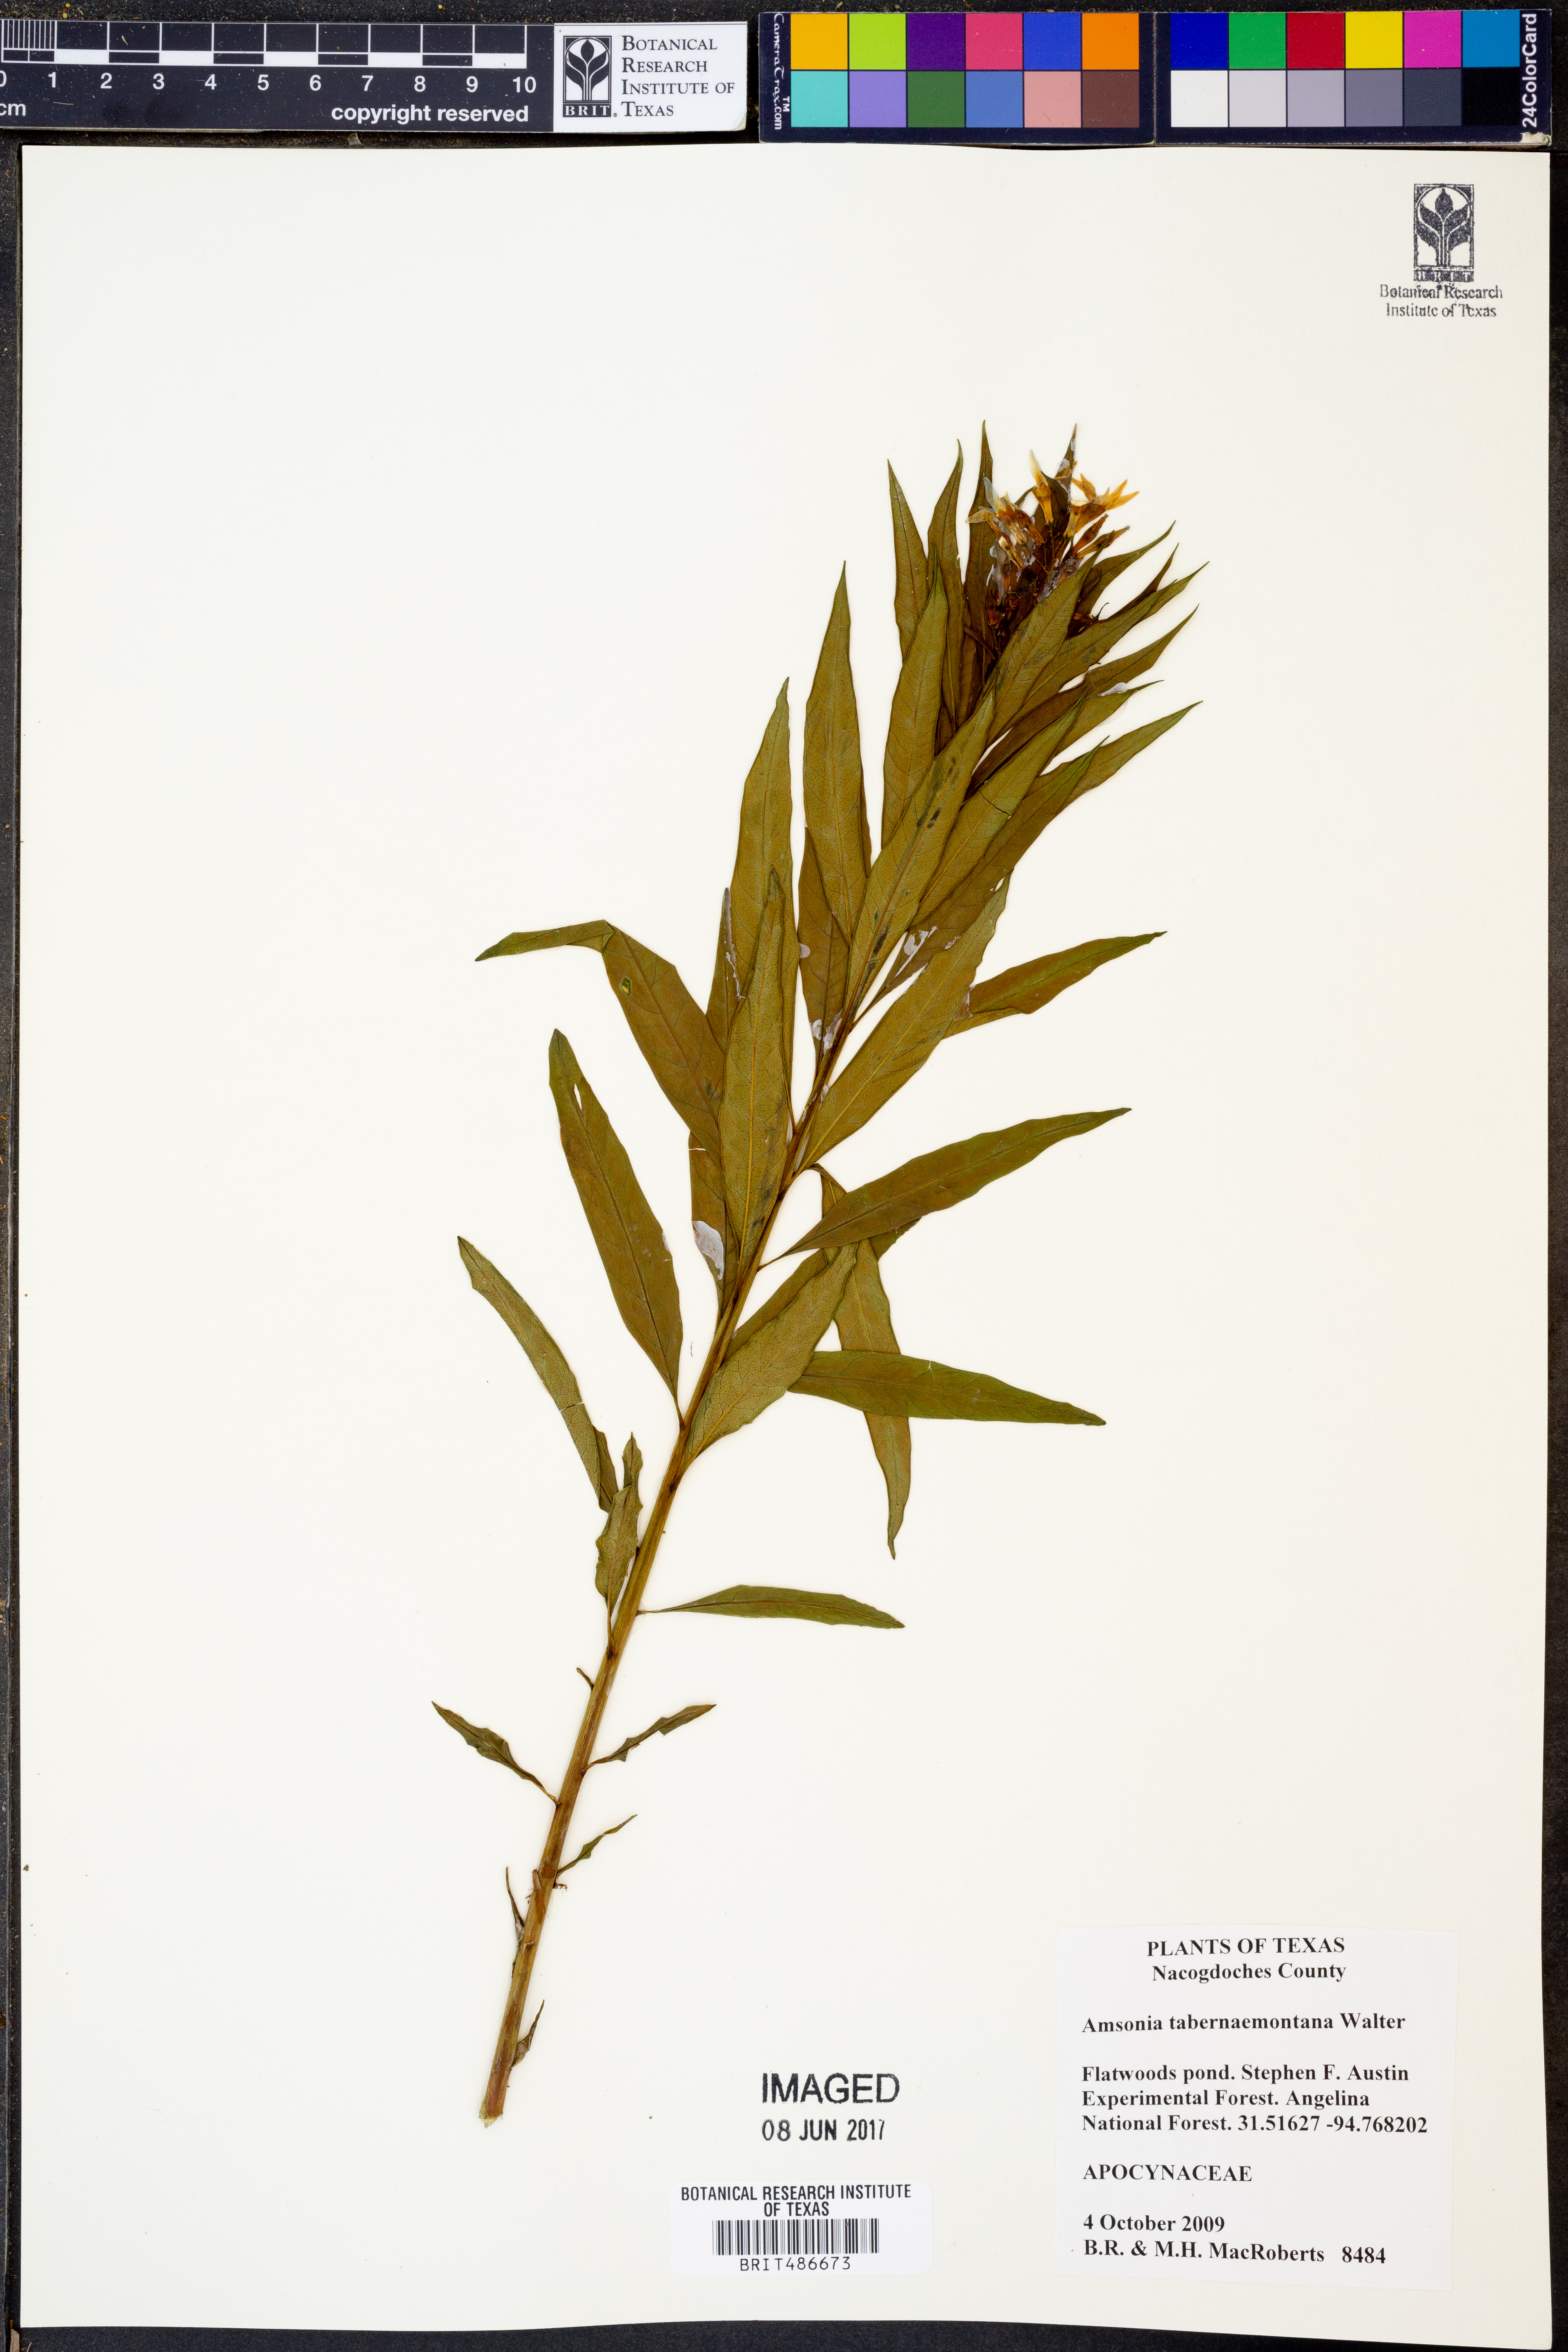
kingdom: Plantae
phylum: Tracheophyta
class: Magnoliopsida
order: Gentianales
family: Apocynaceae
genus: Amsonia
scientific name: Amsonia tabernaemontana
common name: Texas-star
